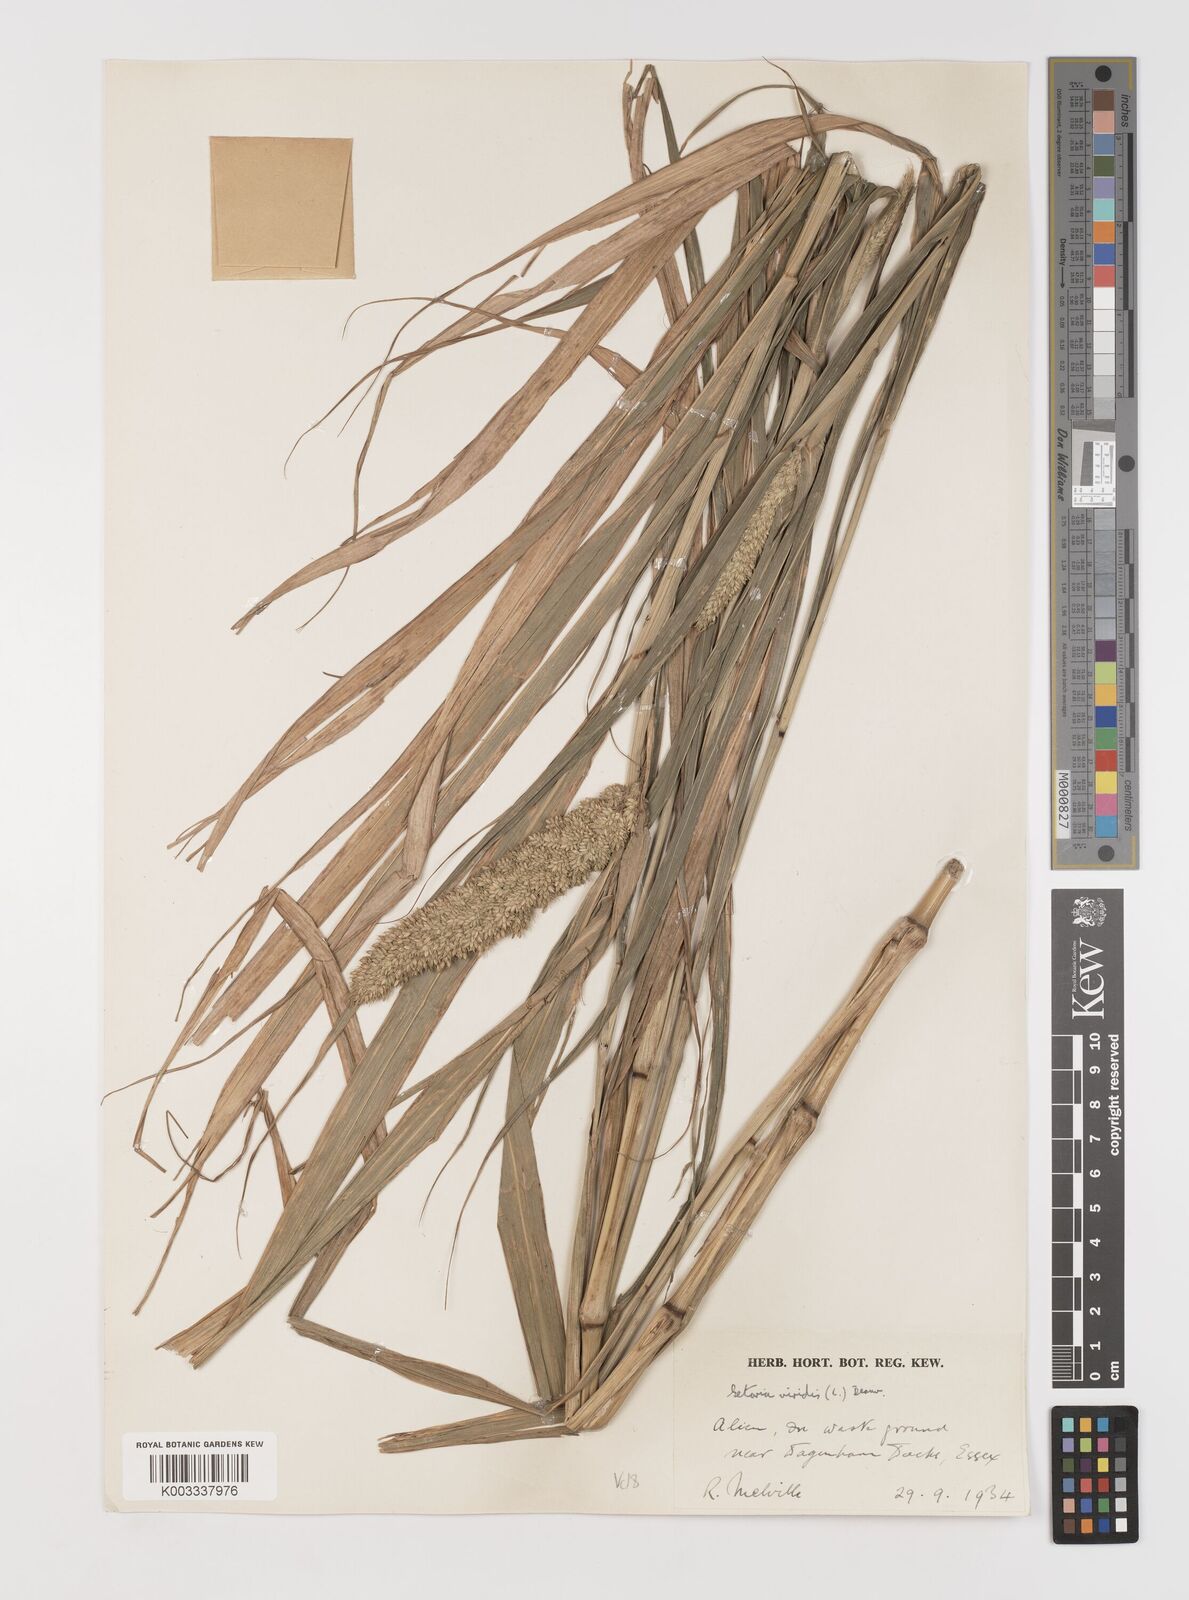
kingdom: Plantae
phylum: Tracheophyta
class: Liliopsida
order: Poales
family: Poaceae
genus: Setaria
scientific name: Setaria italica
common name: Foxtail bristle-grass
